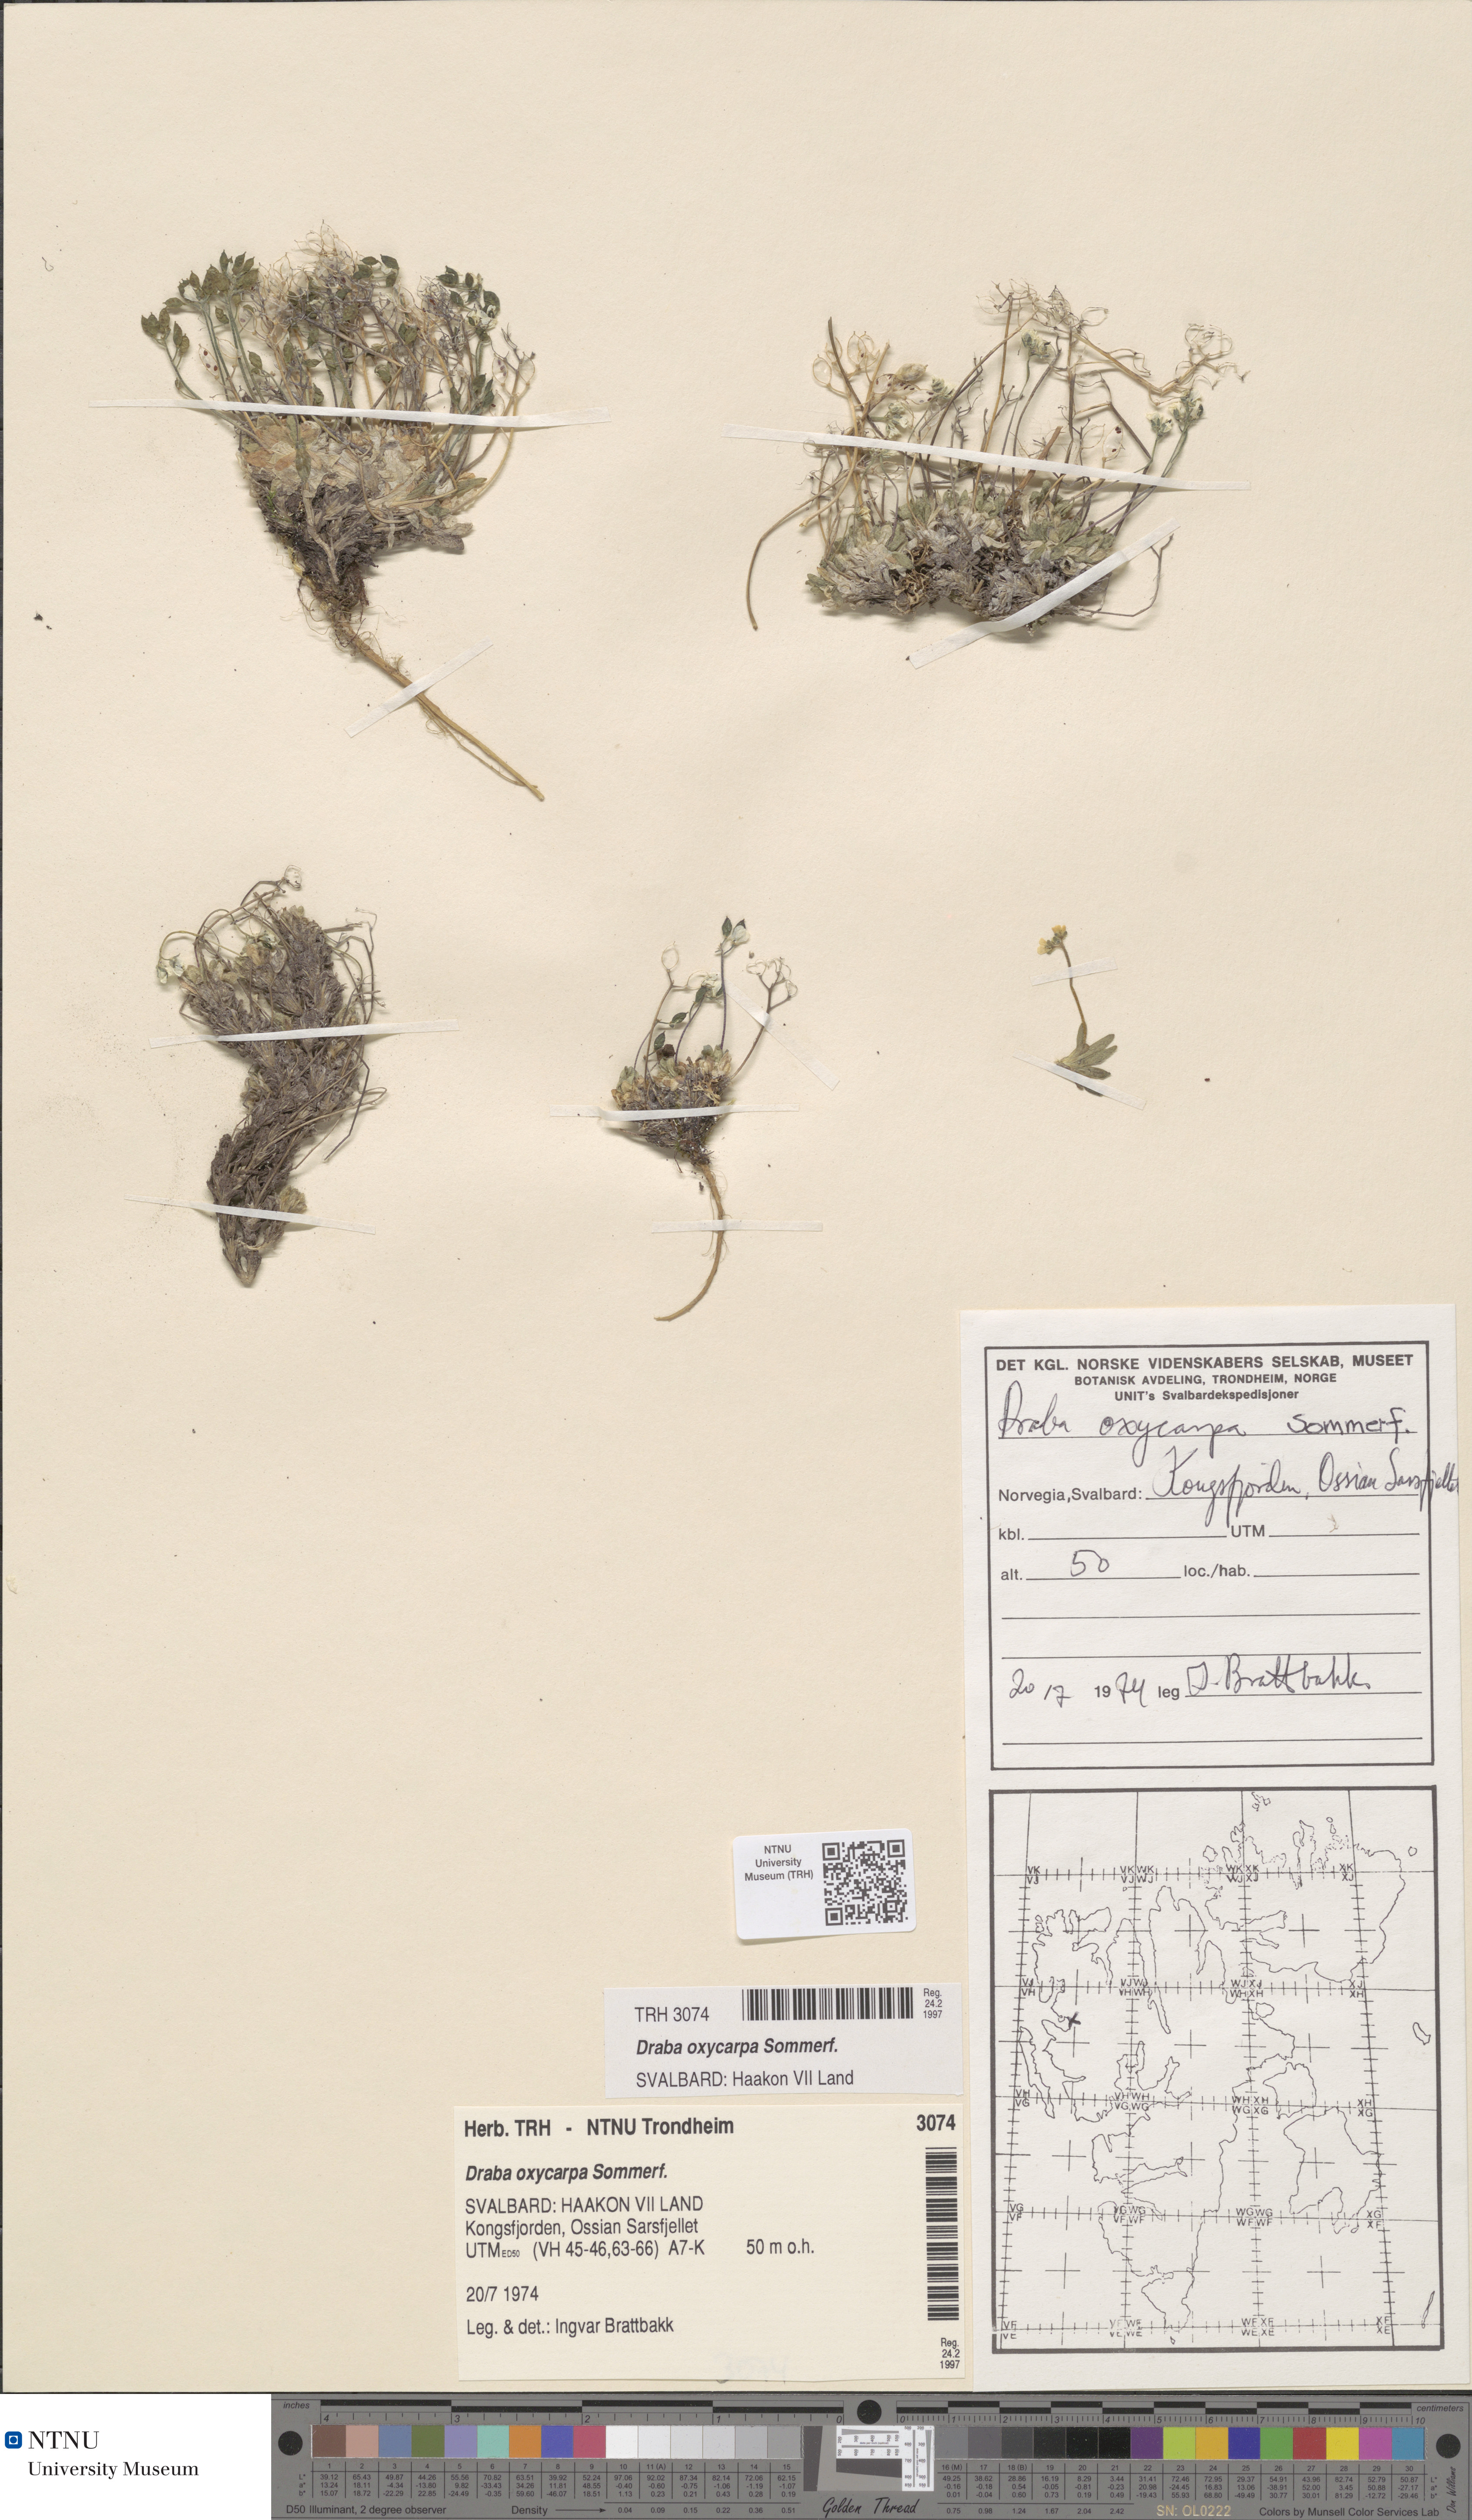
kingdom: Plantae
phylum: Tracheophyta
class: Magnoliopsida
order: Brassicales
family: Brassicaceae
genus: Draba
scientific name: Draba oxycarpa
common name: Sharp-fruited whitlow-grass
